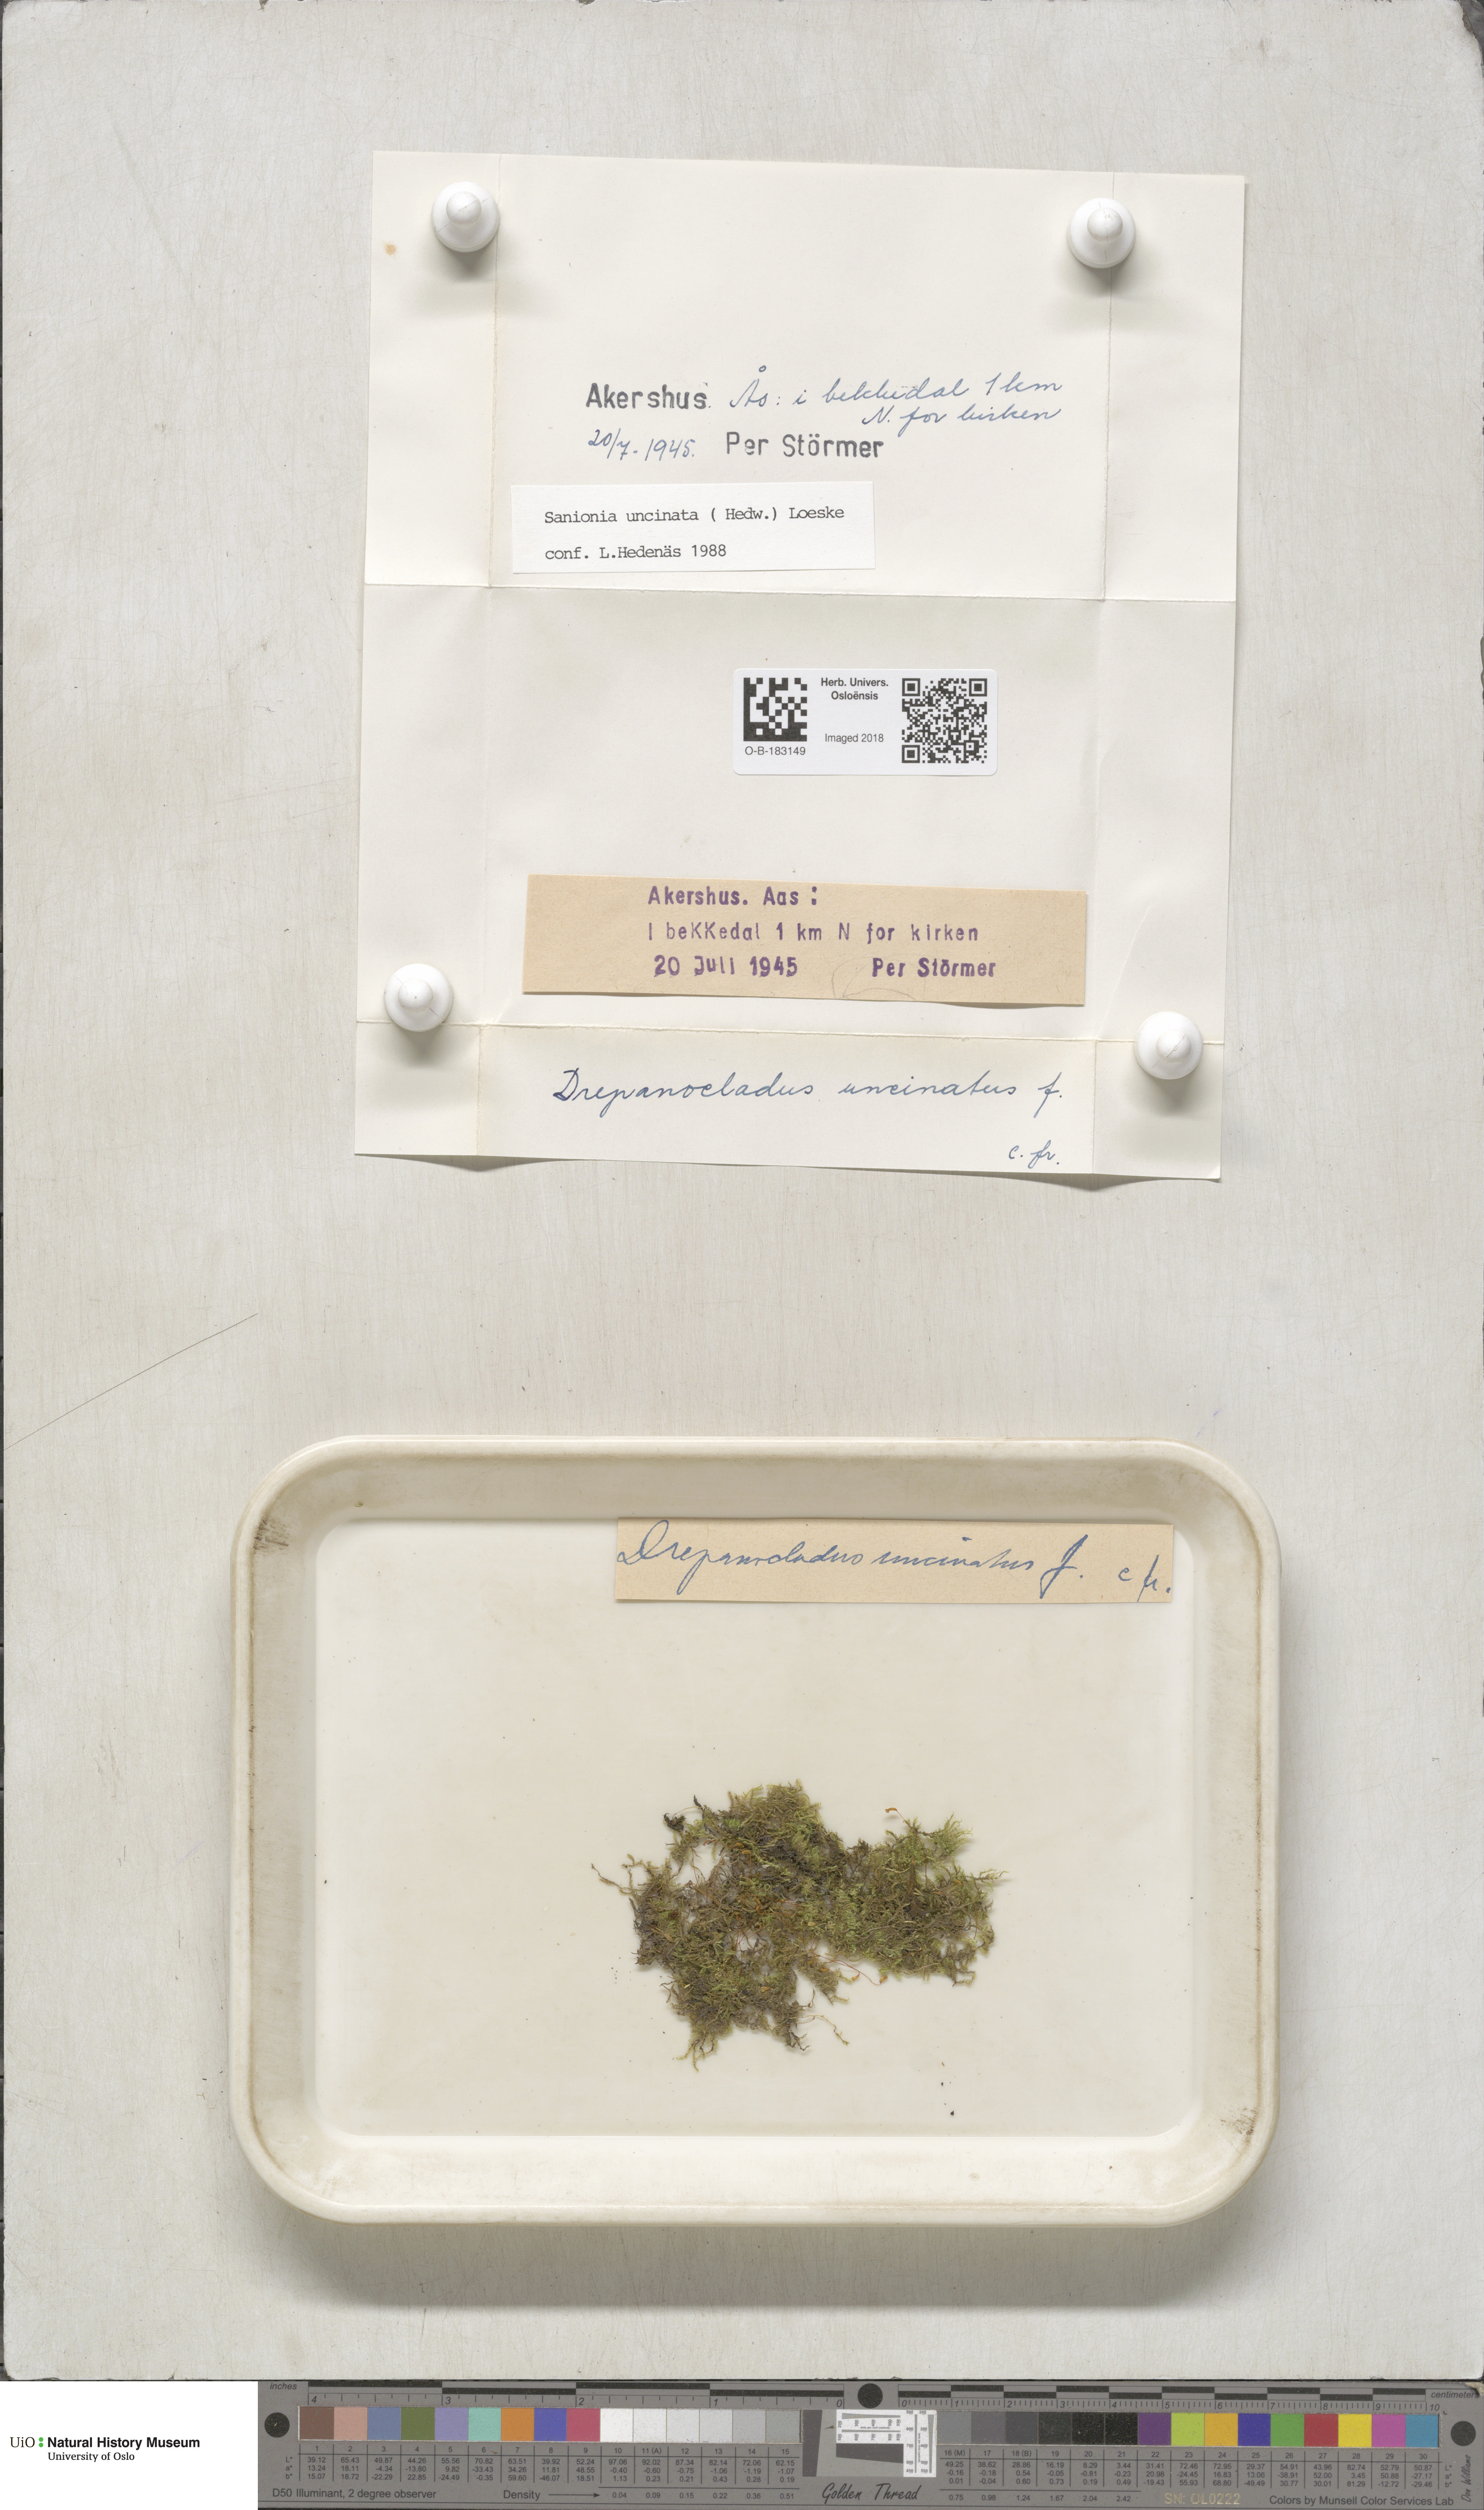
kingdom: Plantae
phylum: Bryophyta
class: Bryopsida
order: Hypnales
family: Scorpidiaceae
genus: Sanionia
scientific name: Sanionia uncinata
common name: Sickle moss
